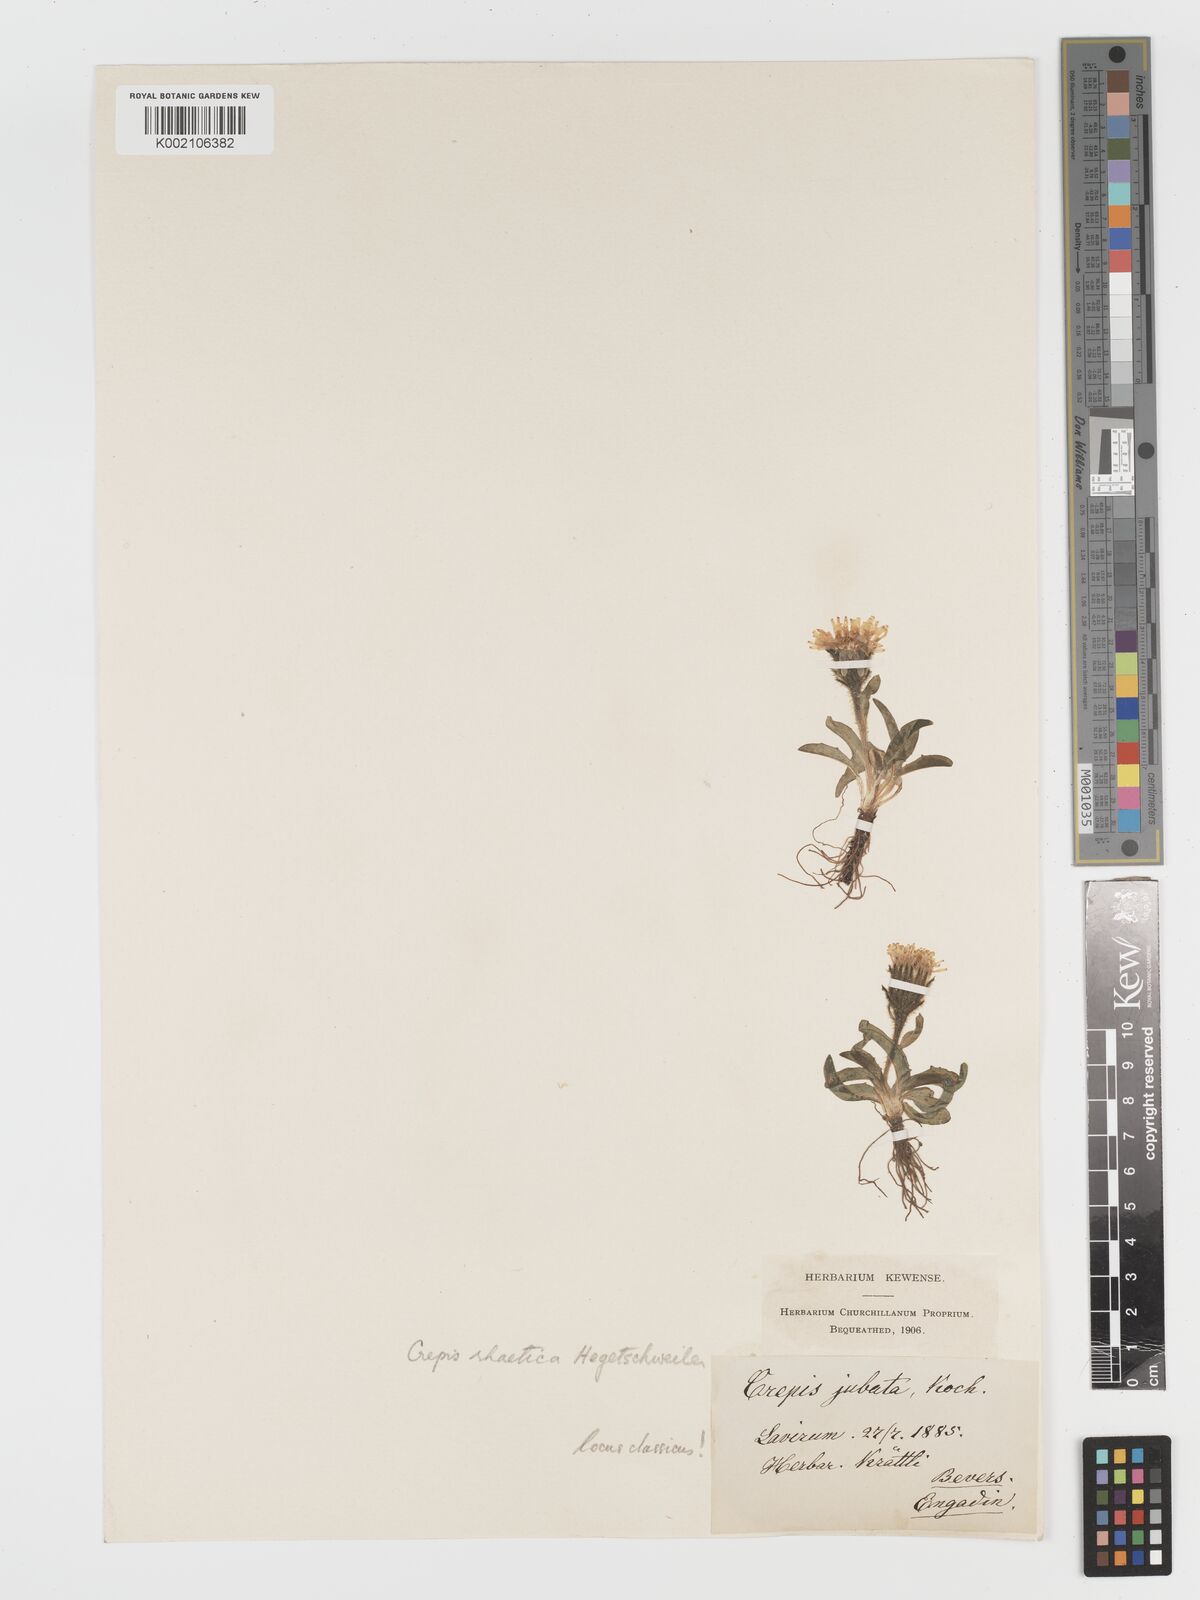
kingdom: Plantae
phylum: Tracheophyta
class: Magnoliopsida
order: Asterales
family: Asteraceae
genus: Crepis
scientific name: Crepis rhaetica
